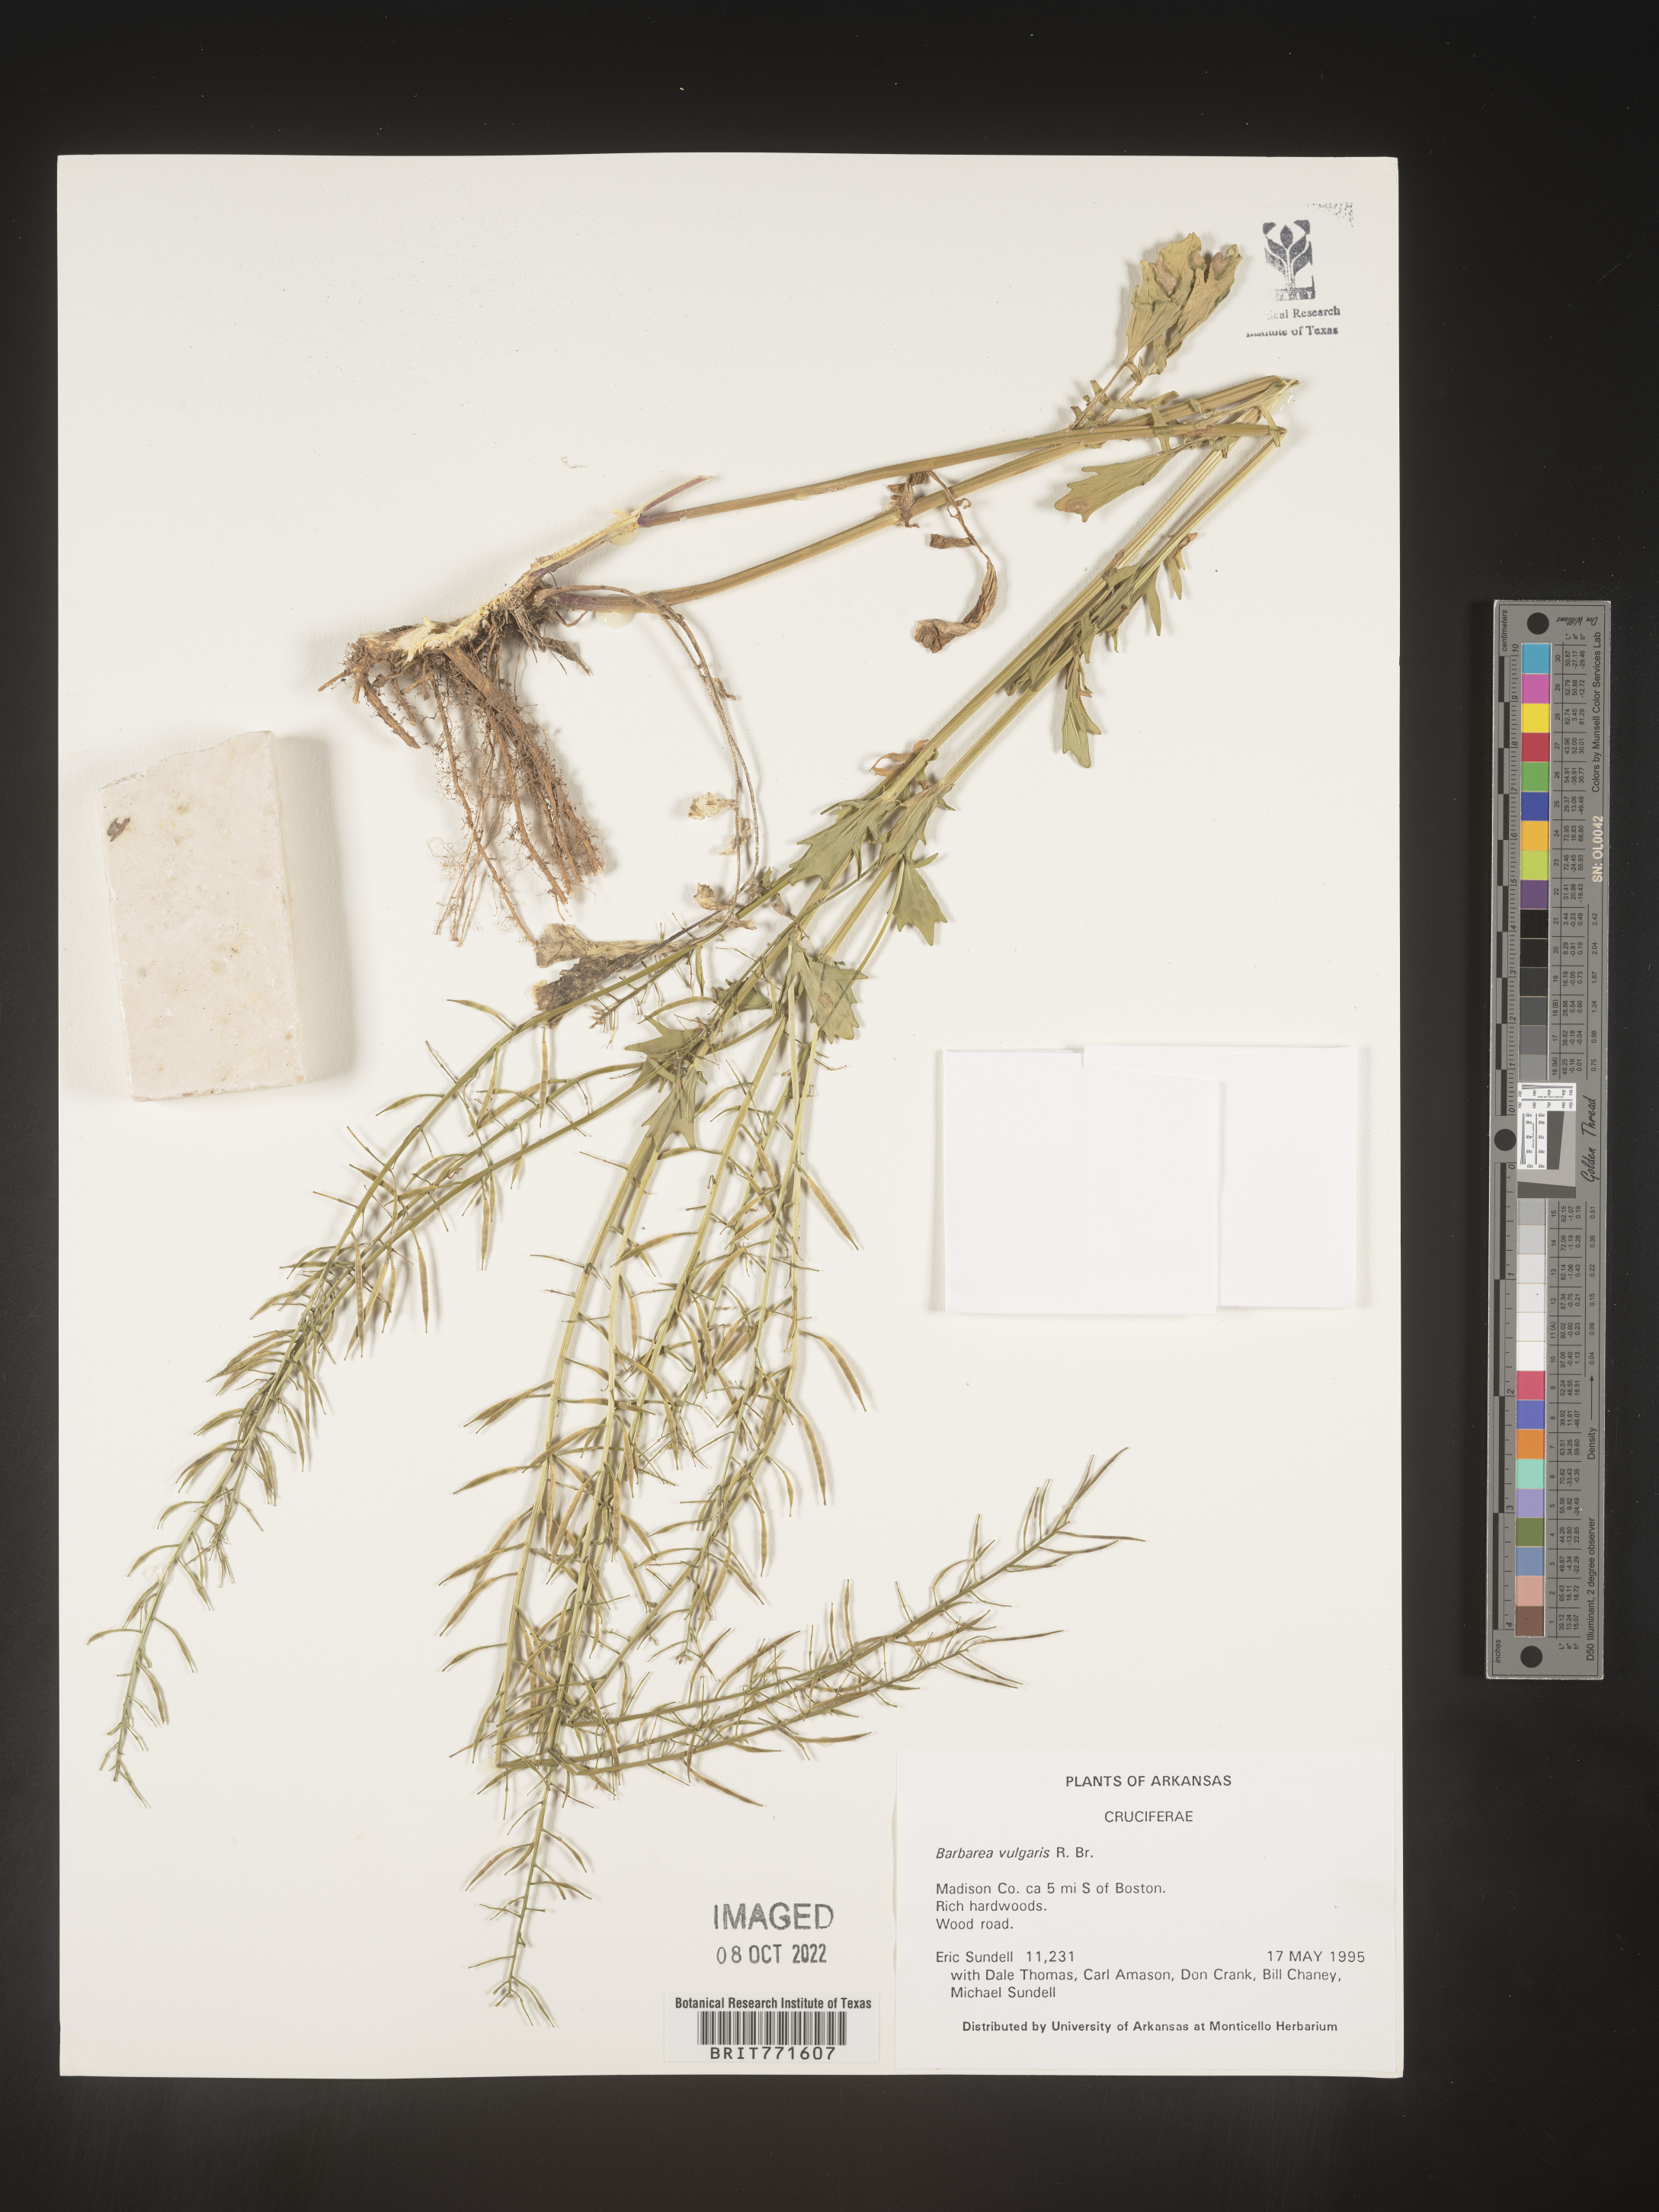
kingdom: Plantae
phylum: Tracheophyta
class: Magnoliopsida
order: Brassicales
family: Brassicaceae
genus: Barbarea
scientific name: Barbarea vulgaris
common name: Cressy-greens
